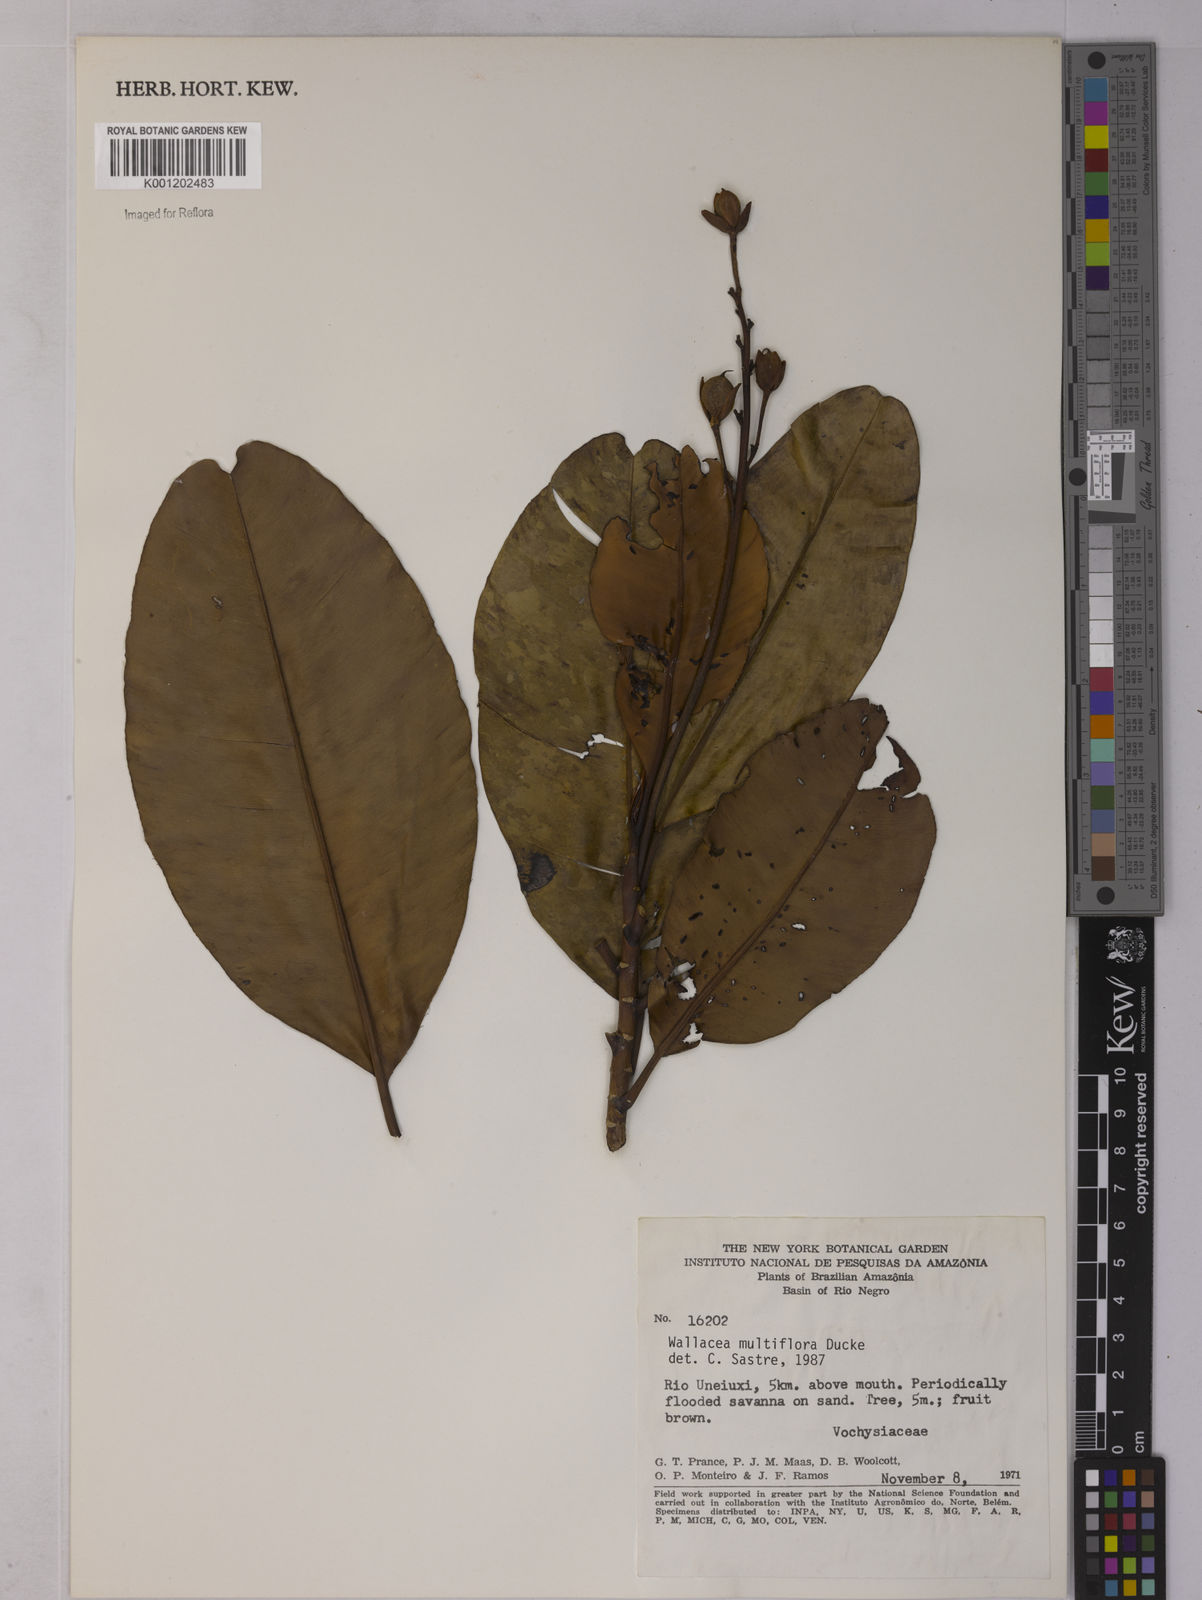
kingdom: Plantae
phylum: Tracheophyta
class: Magnoliopsida
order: Malpighiales
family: Ochnaceae
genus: Wallacea
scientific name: Wallacea multiflora
